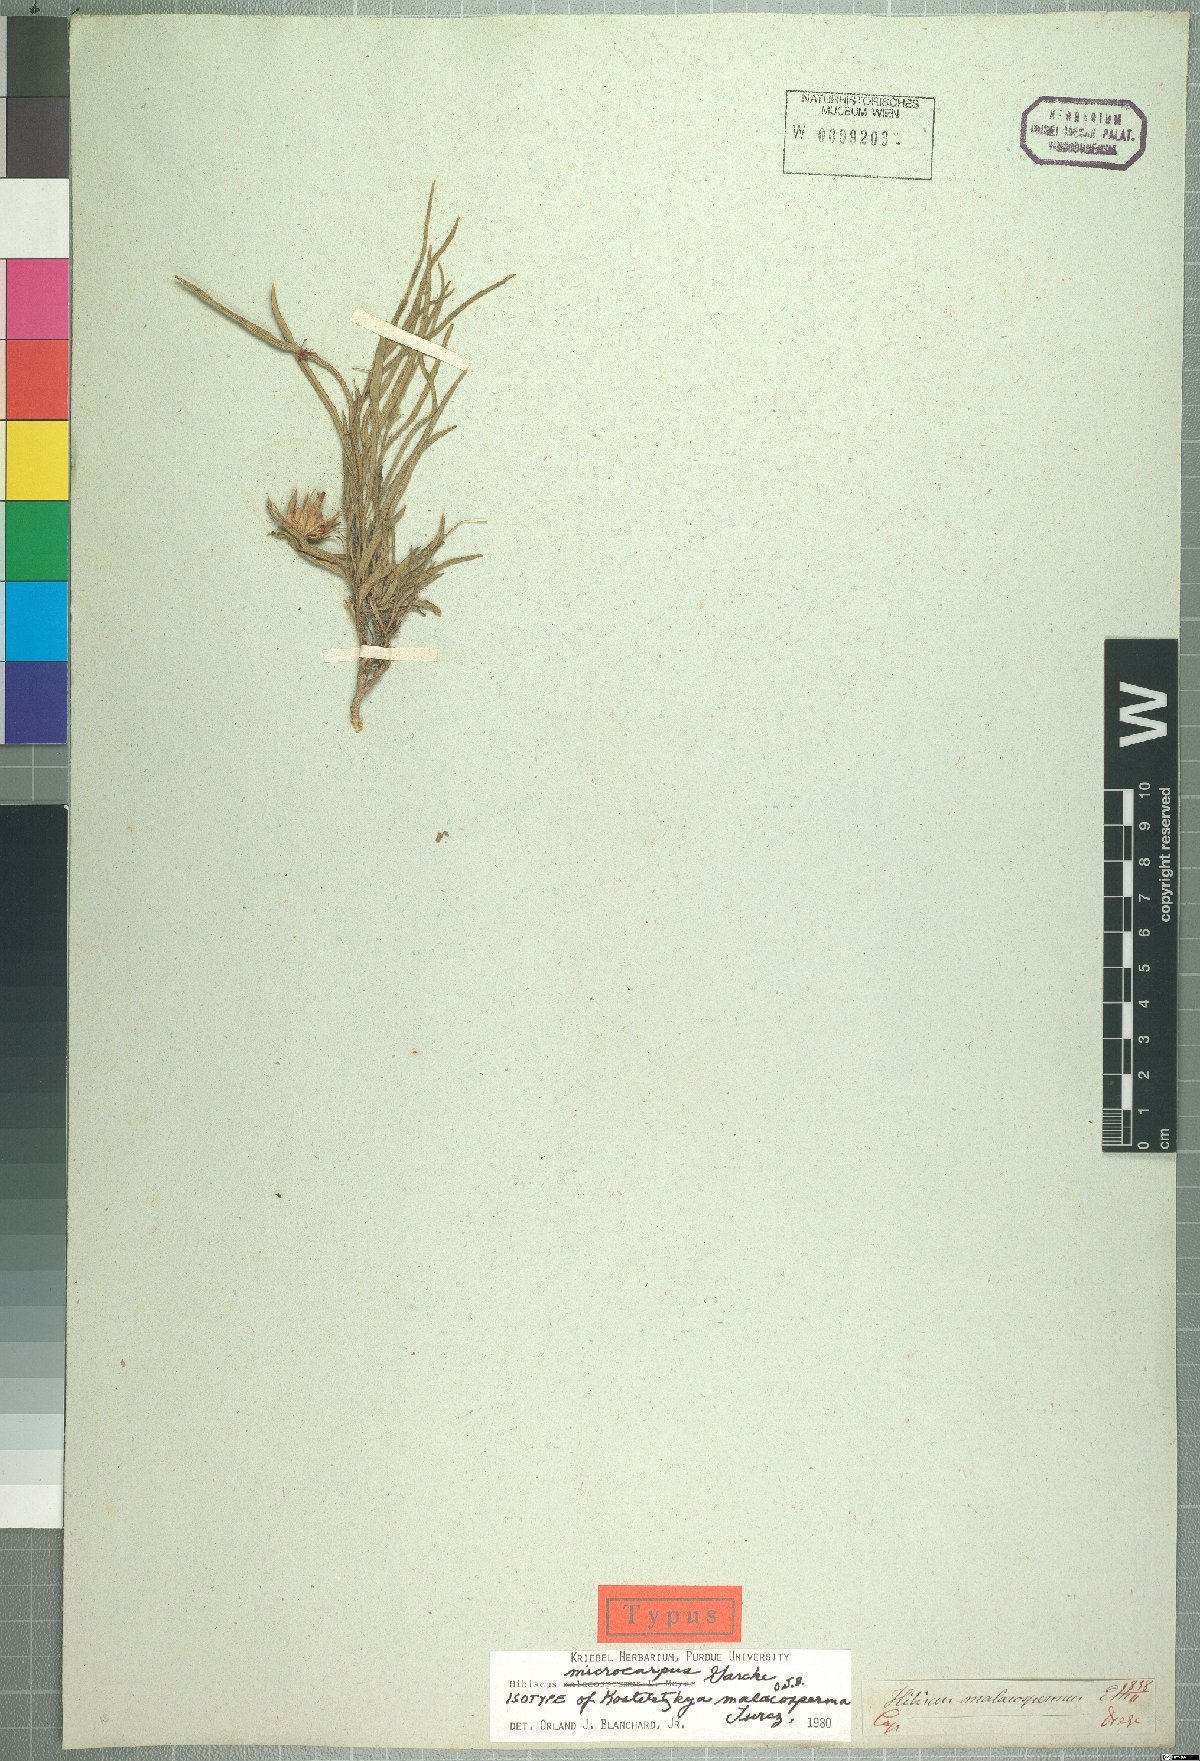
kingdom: Plantae
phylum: Tracheophyta
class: Magnoliopsida
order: Malvales
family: Malvaceae
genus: Hibiscus
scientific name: Hibiscus malacospermus
